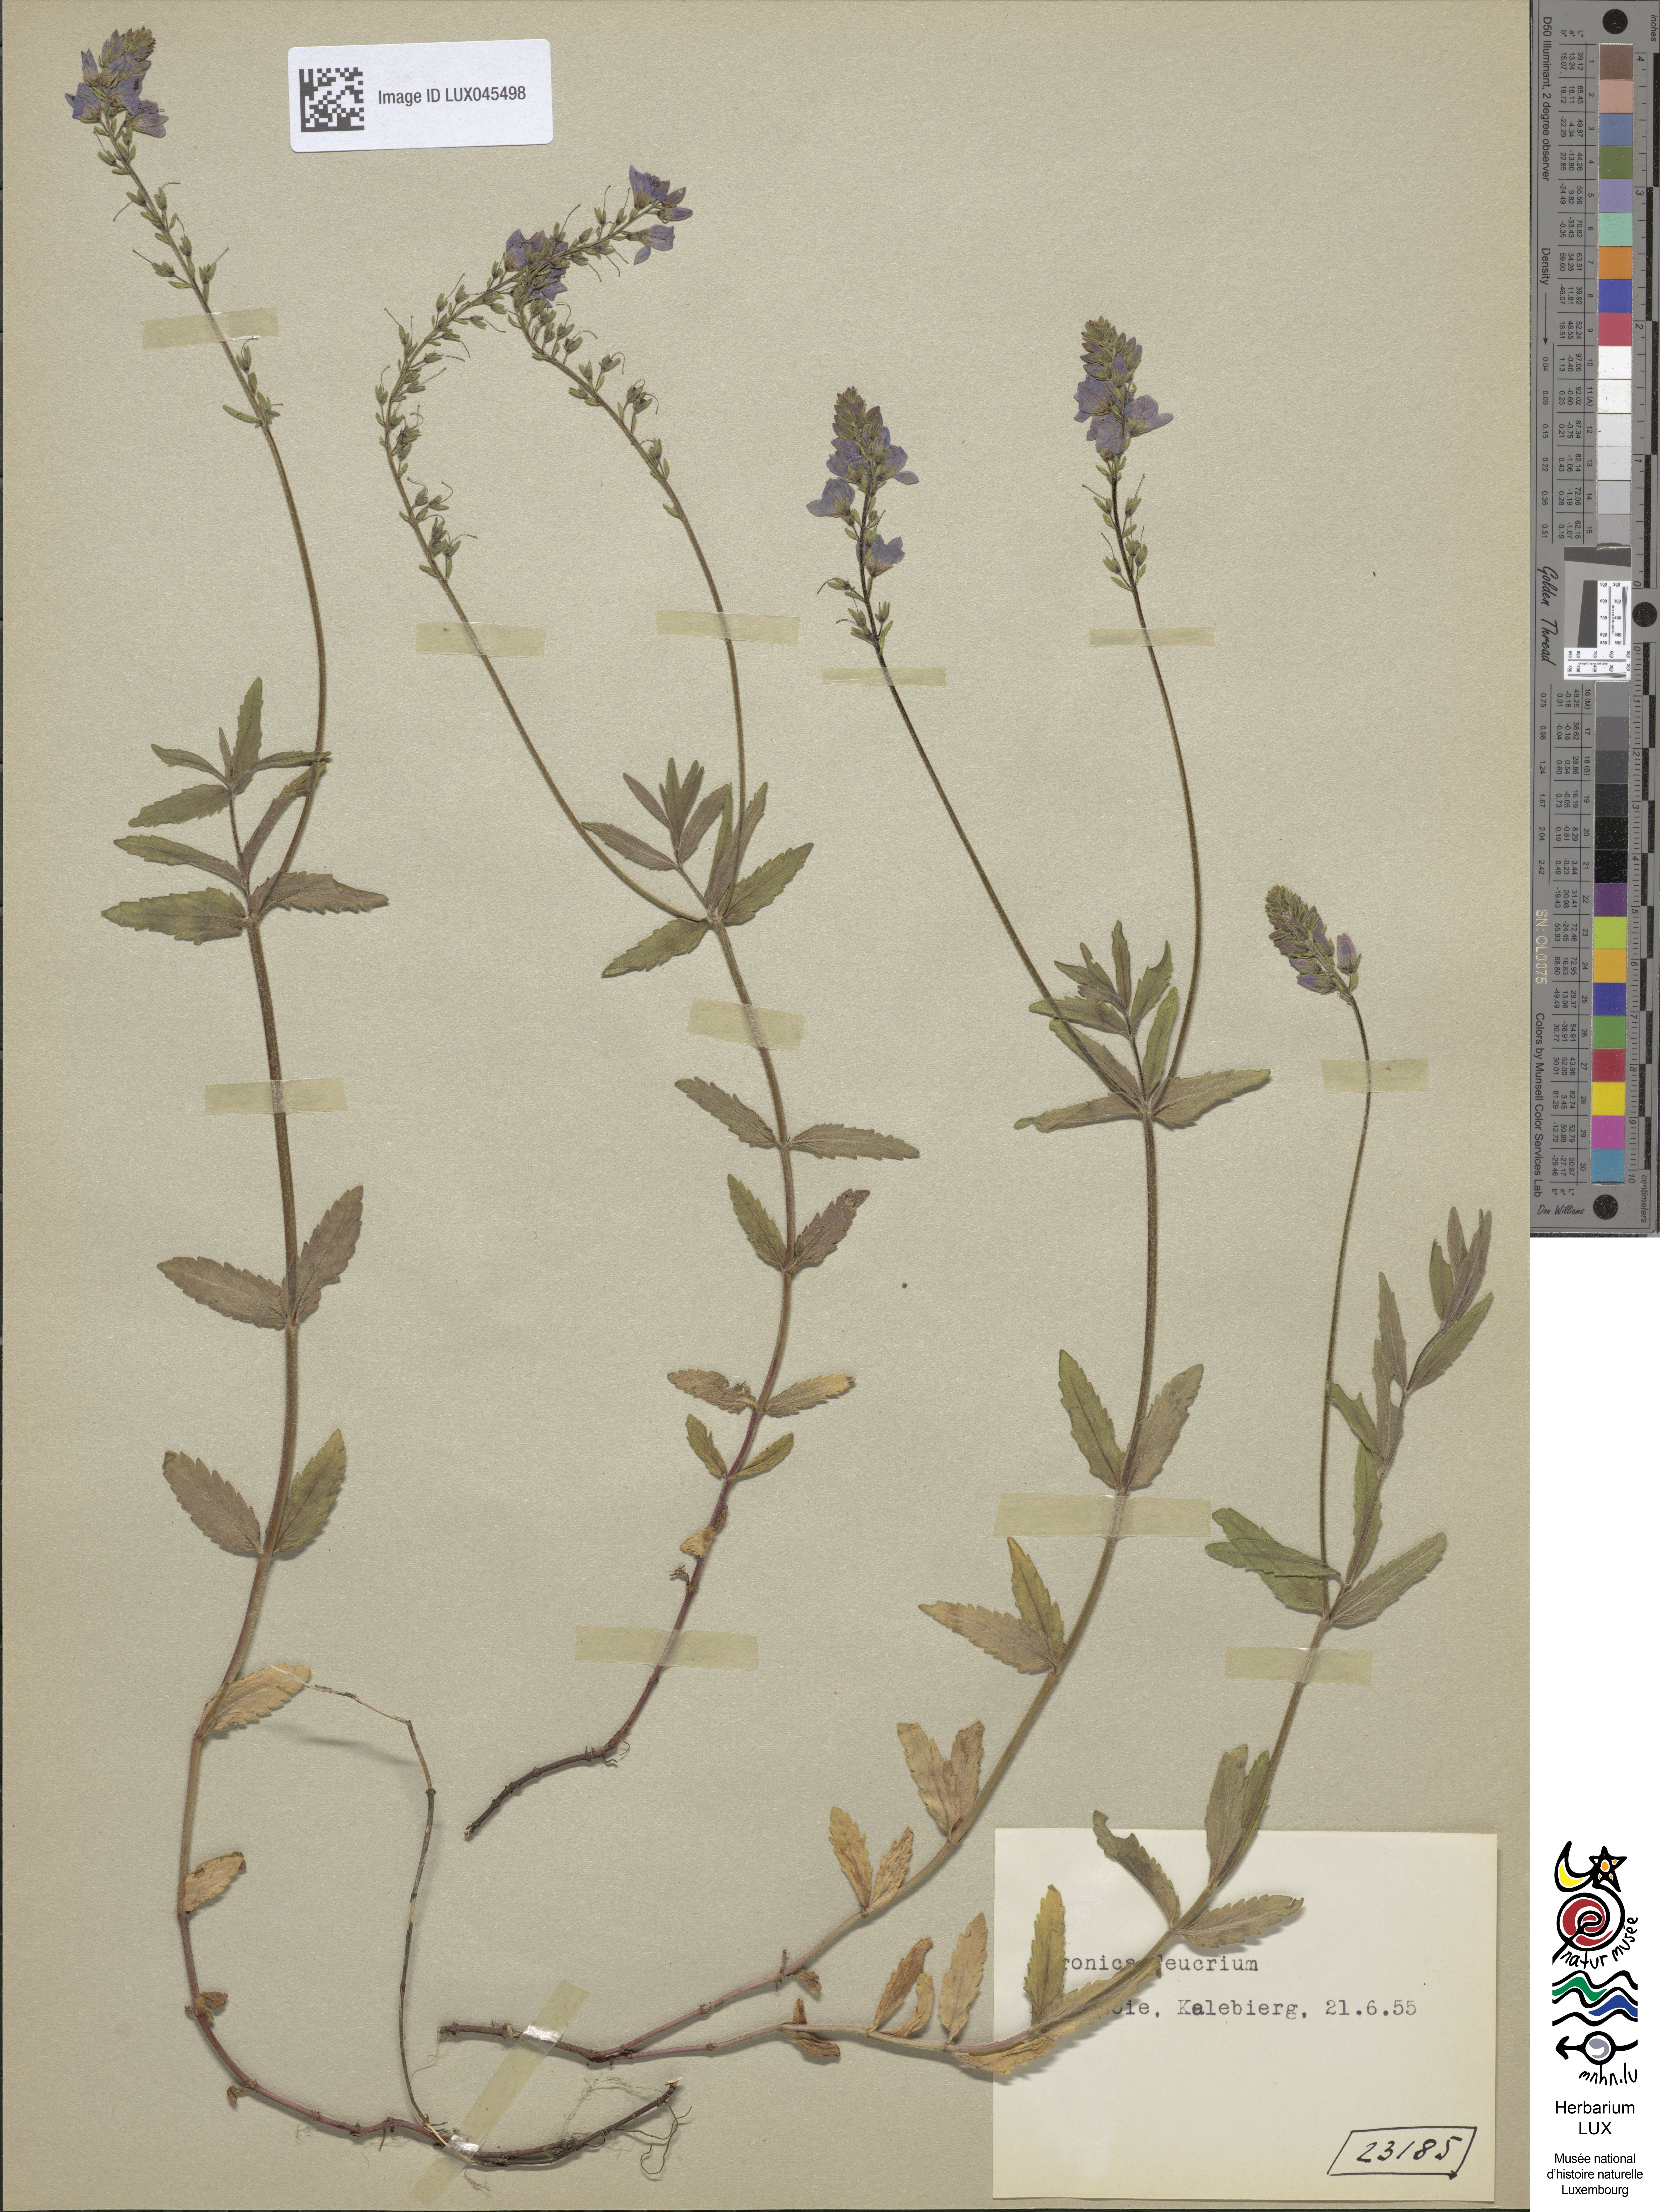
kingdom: Plantae
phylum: Tracheophyta
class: Magnoliopsida
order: Lamiales
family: Plantaginaceae
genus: Veronica
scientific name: Veronica teucrium
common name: Large speedwell
